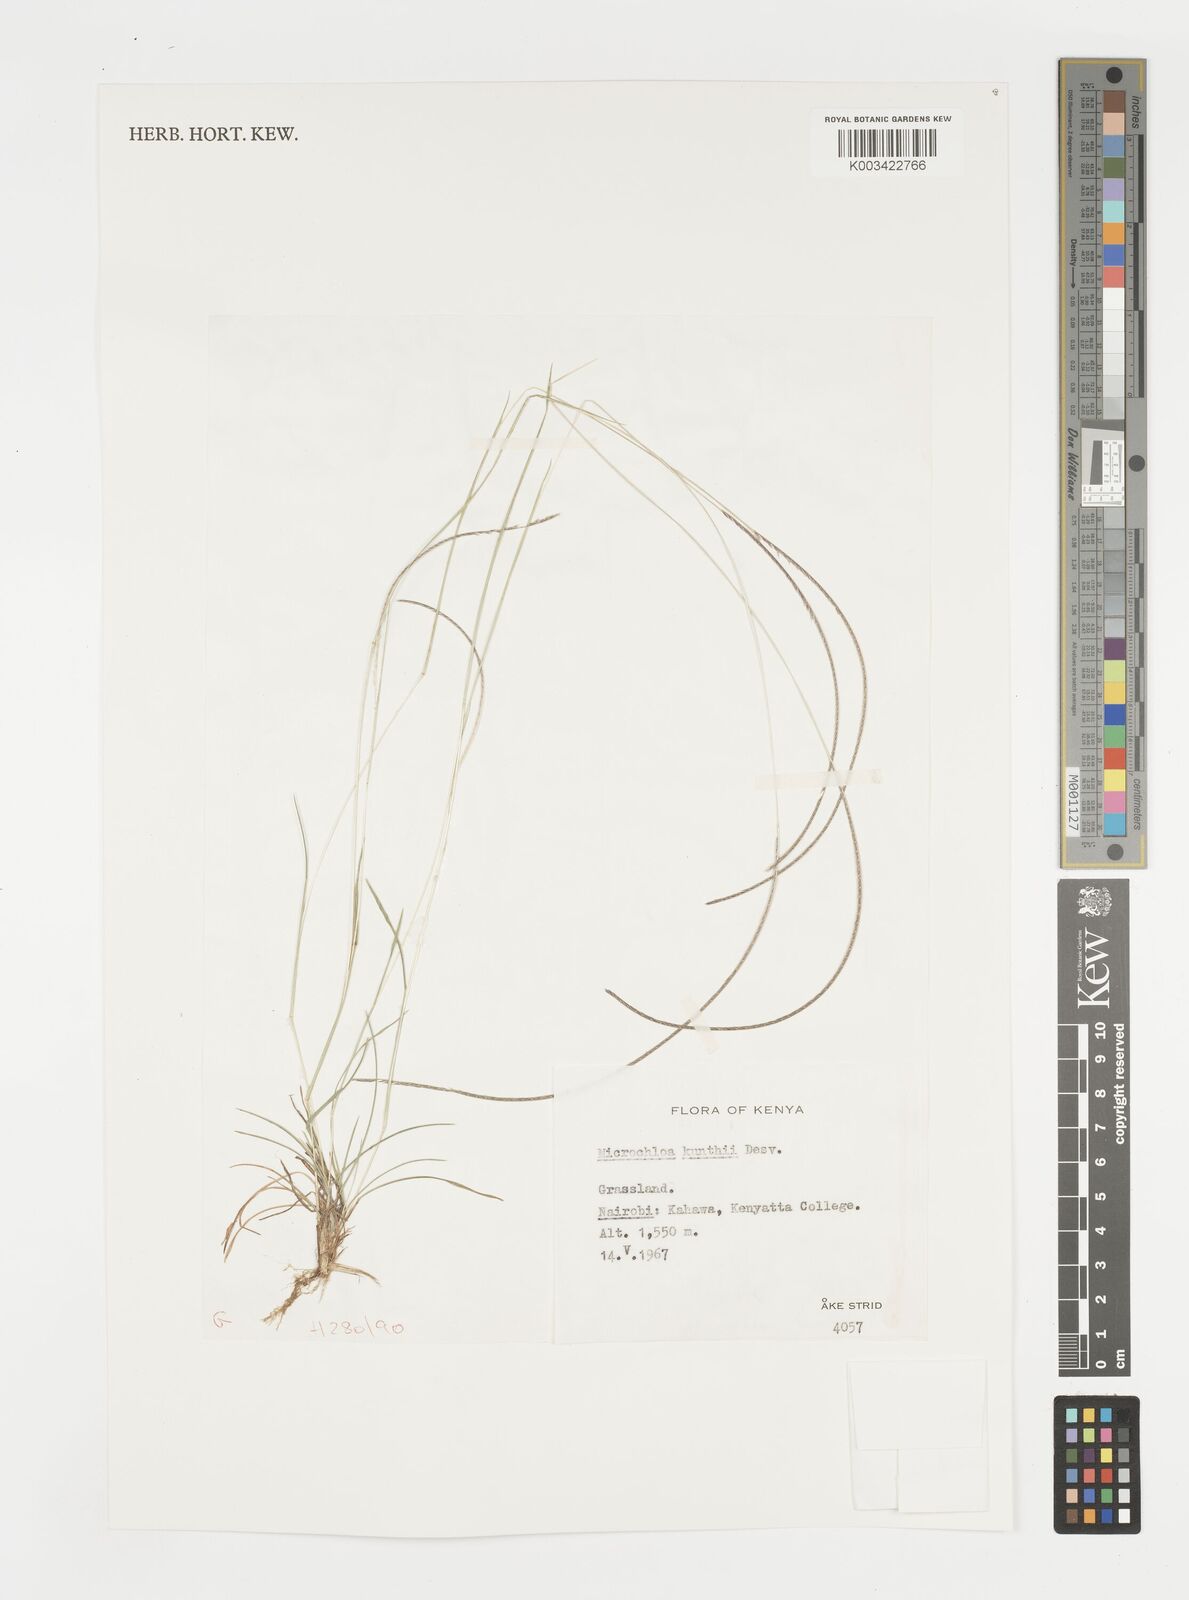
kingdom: Plantae
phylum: Tracheophyta
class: Liliopsida
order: Poales
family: Poaceae
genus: Microchloa
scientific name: Microchloa kunthii
